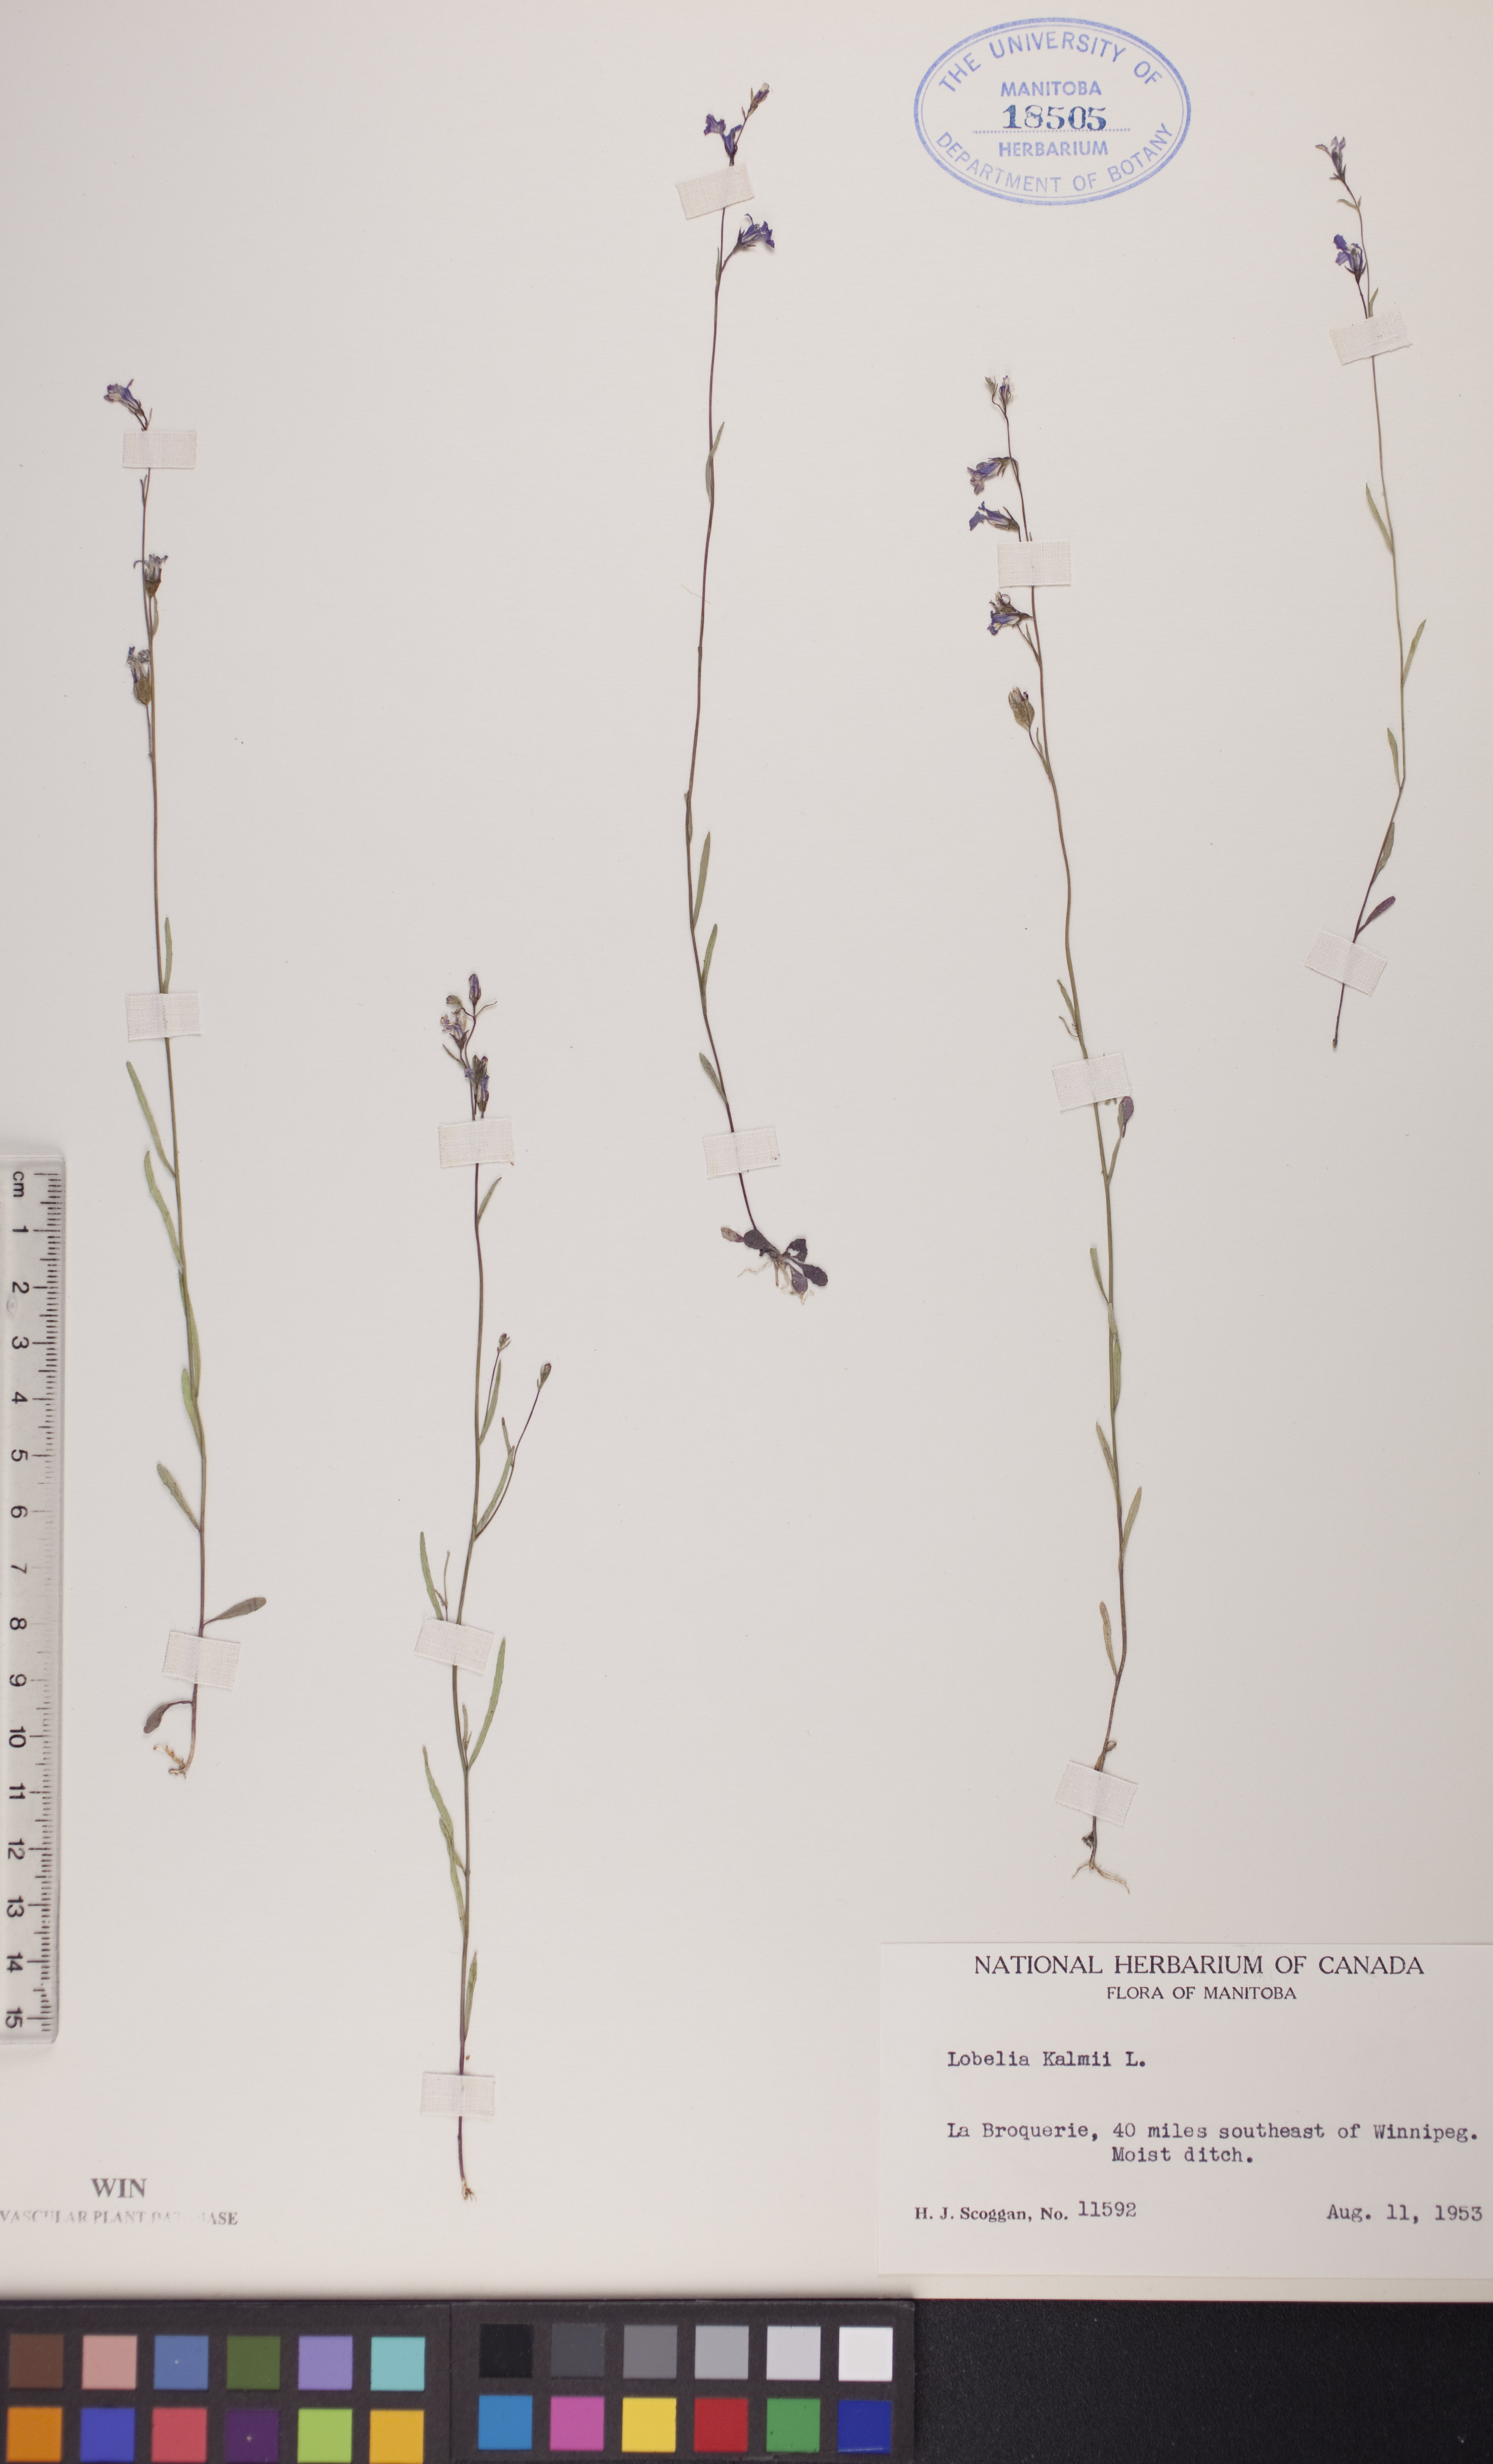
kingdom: Plantae
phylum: Tracheophyta
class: Magnoliopsida
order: Asterales
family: Campanulaceae
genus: Lobelia
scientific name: Lobelia kalmii
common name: Kalm's lobelia
